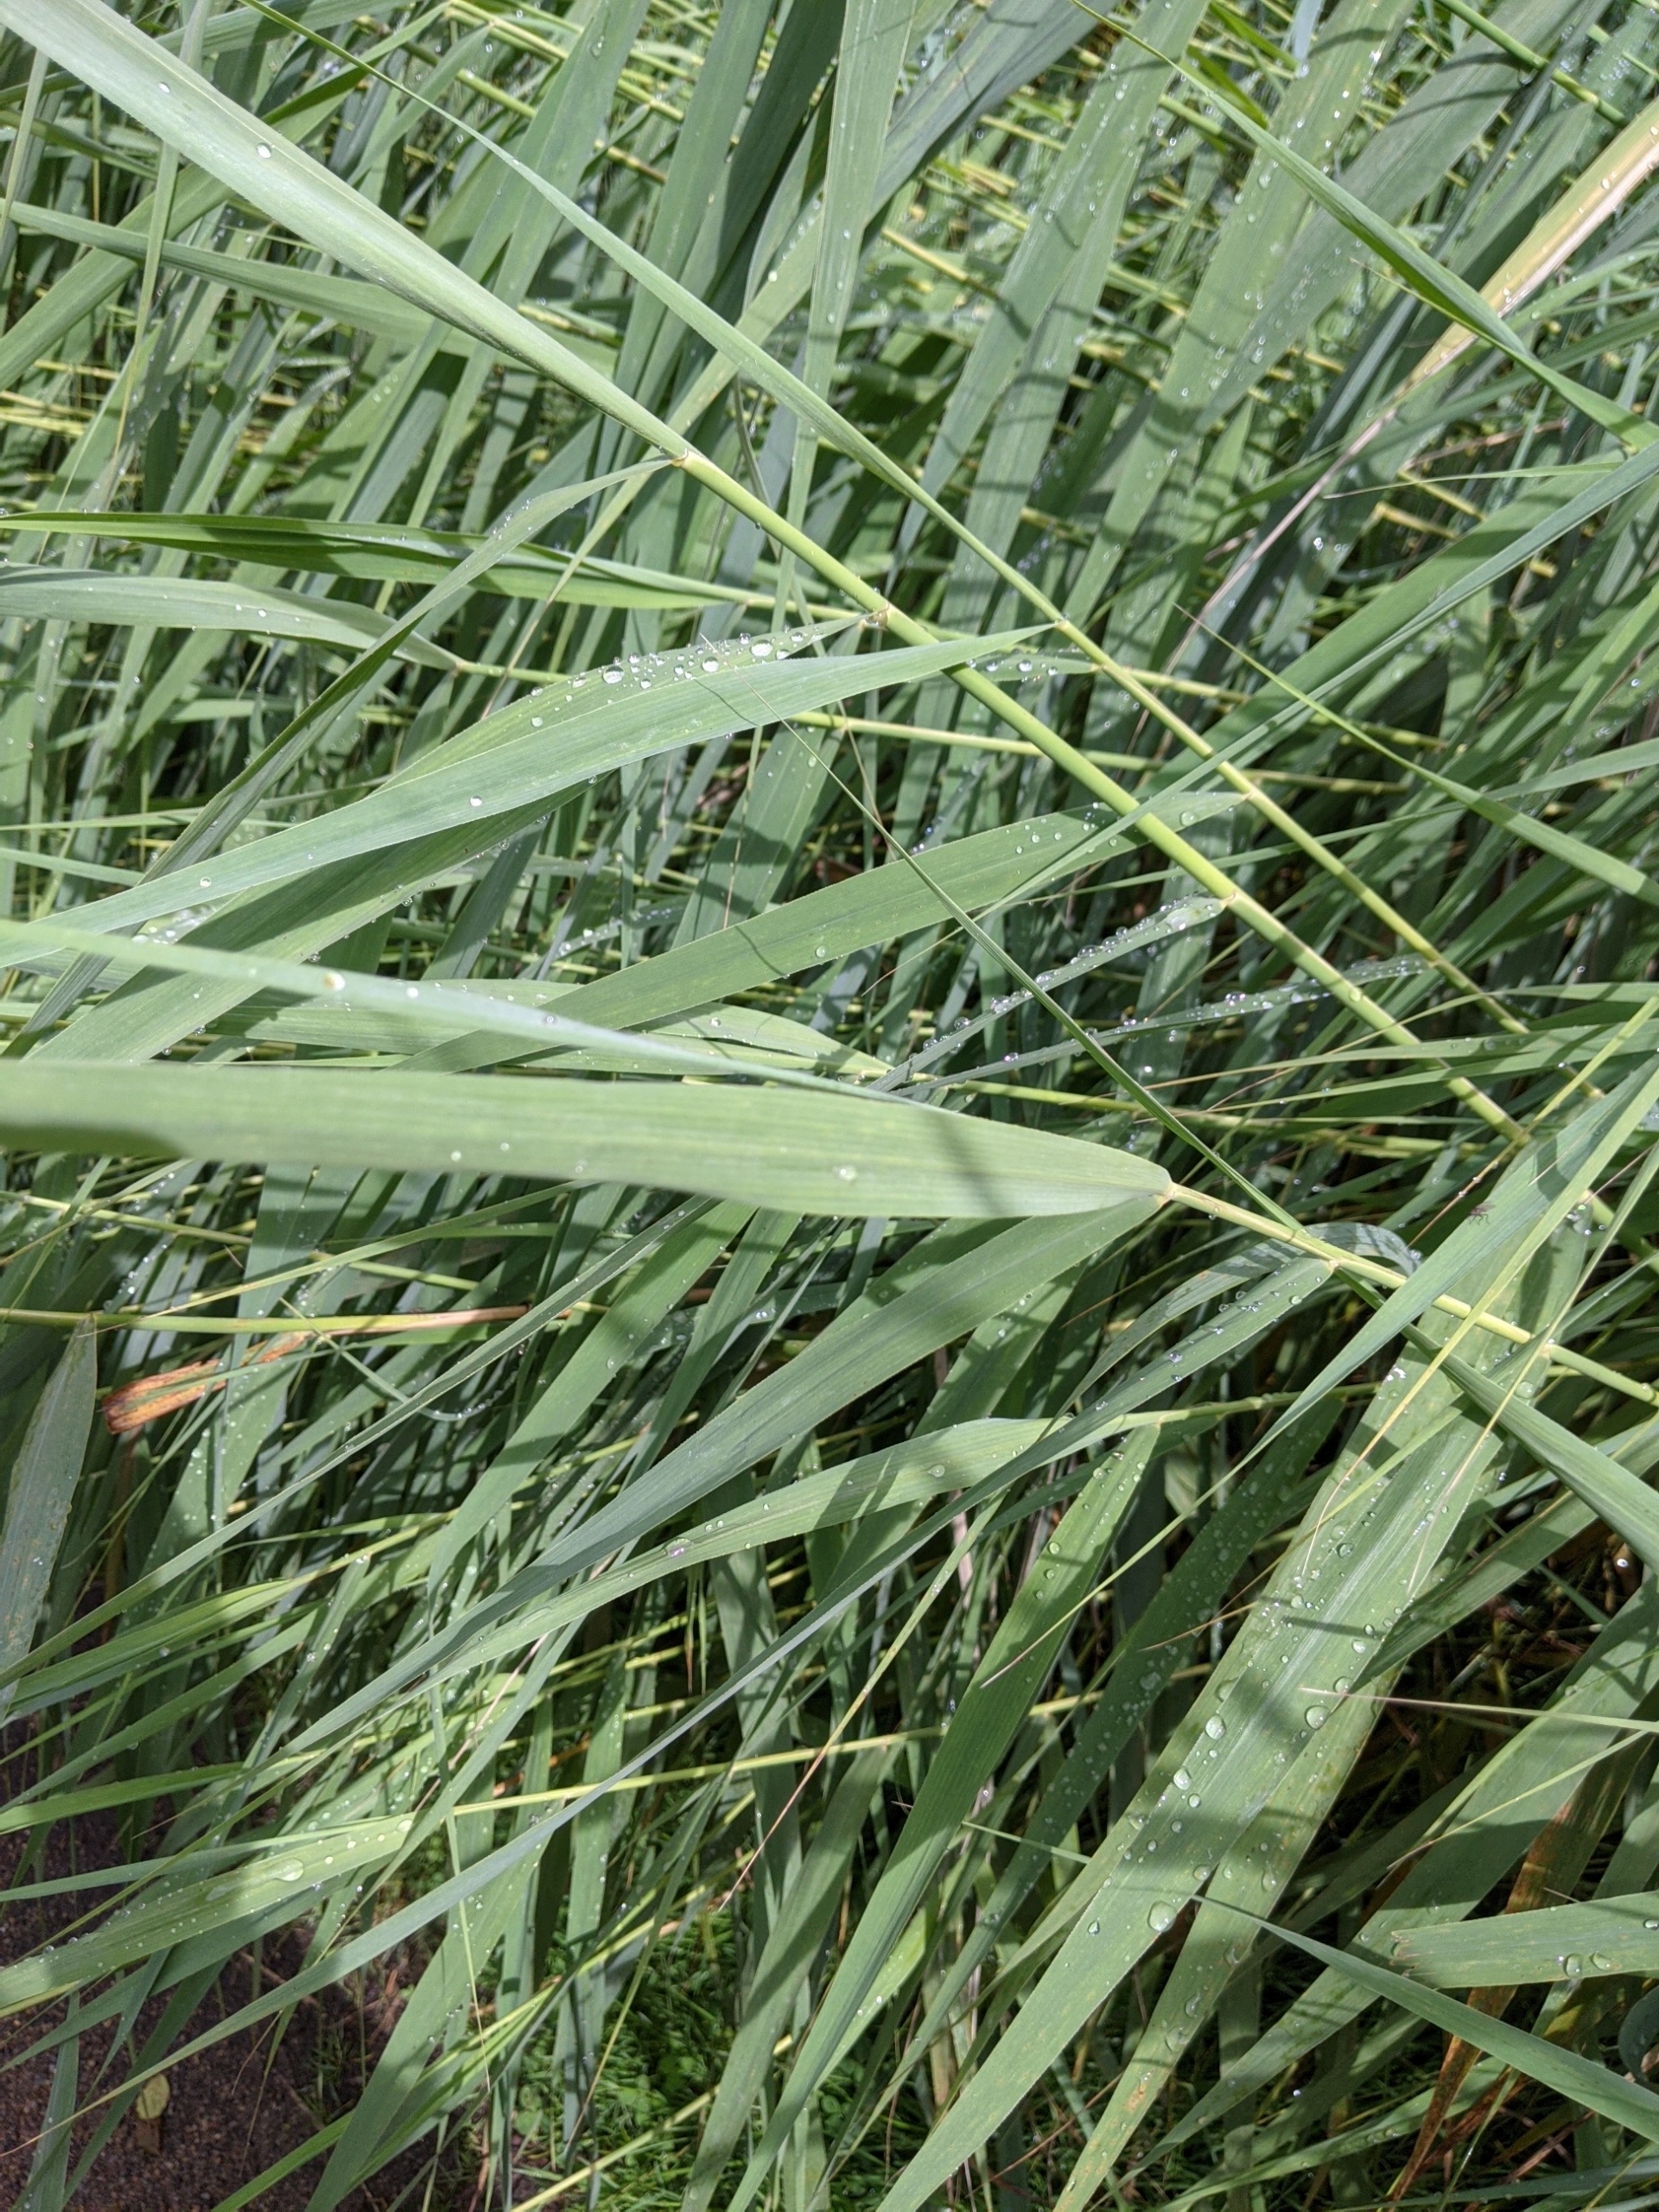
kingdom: Plantae
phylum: Tracheophyta
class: Liliopsida
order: Poales
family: Poaceae
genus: Phragmites
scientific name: Phragmites australis
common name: Tagrør
